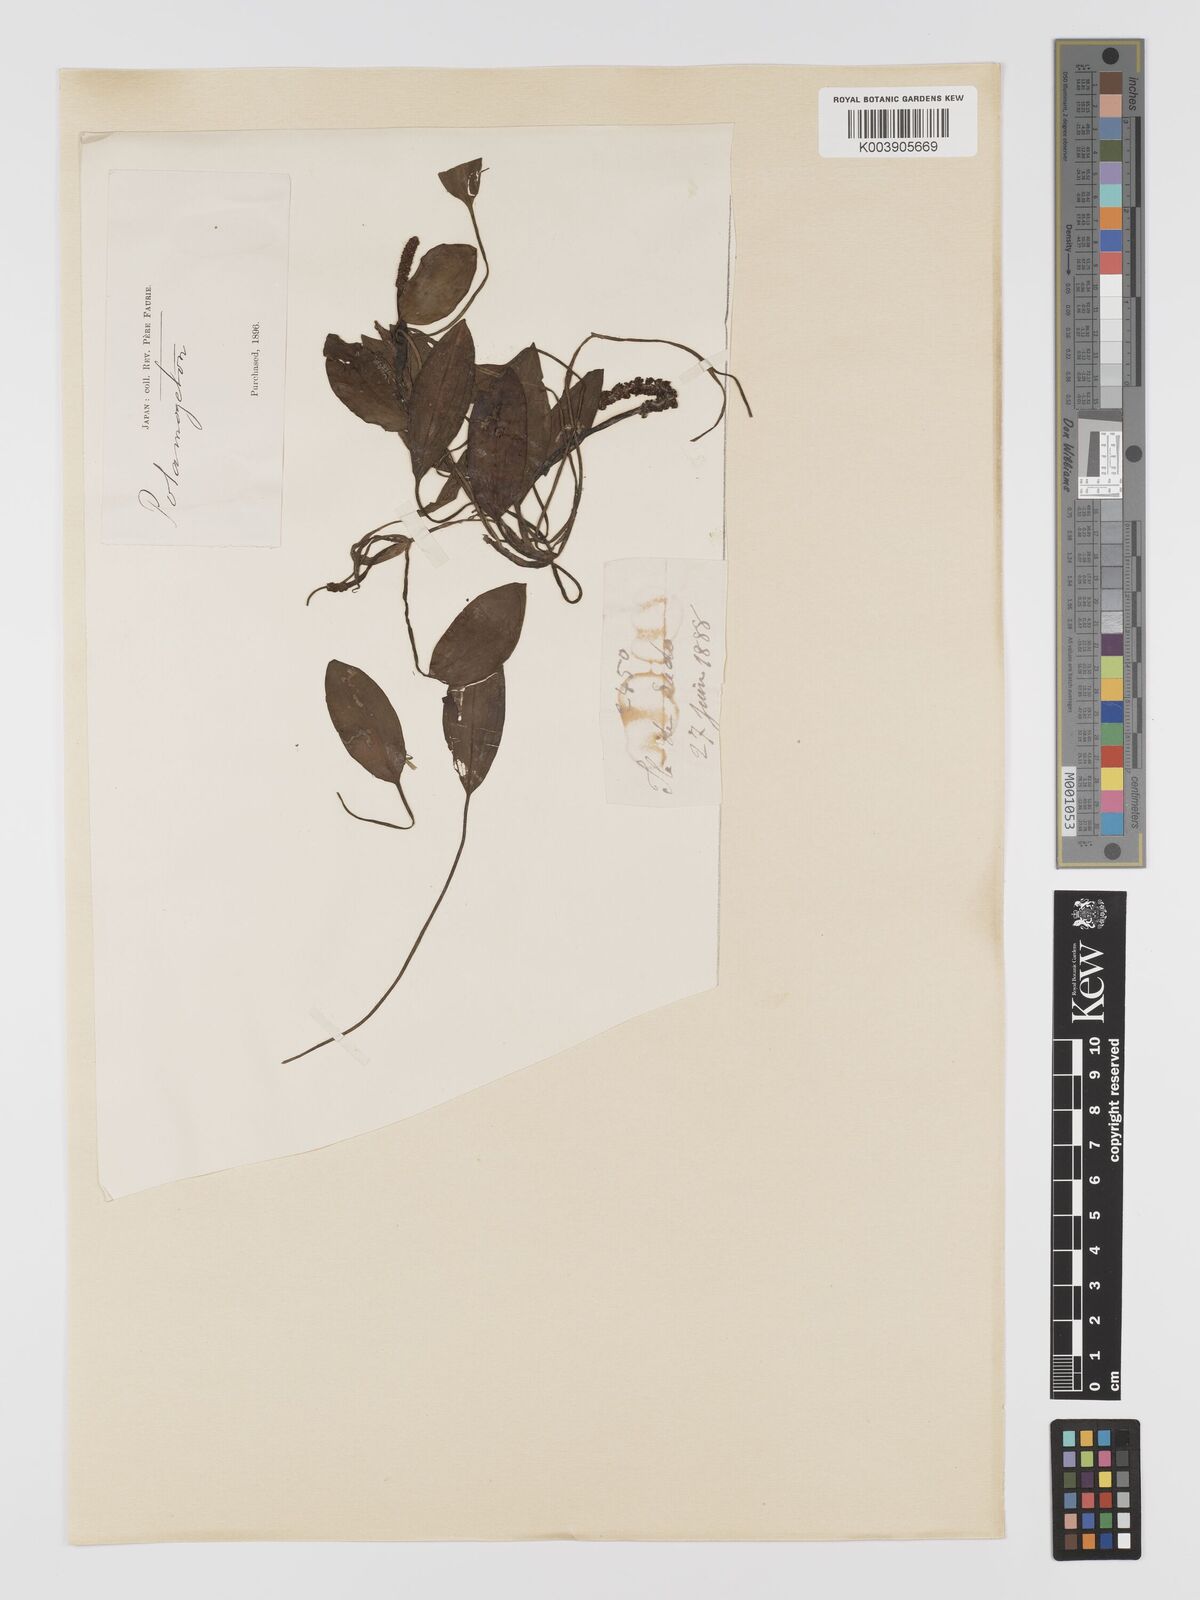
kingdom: Plantae
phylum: Tracheophyta
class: Liliopsida
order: Alismatales
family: Potamogetonaceae
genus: Potamogeton
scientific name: Potamogeton distinctus
